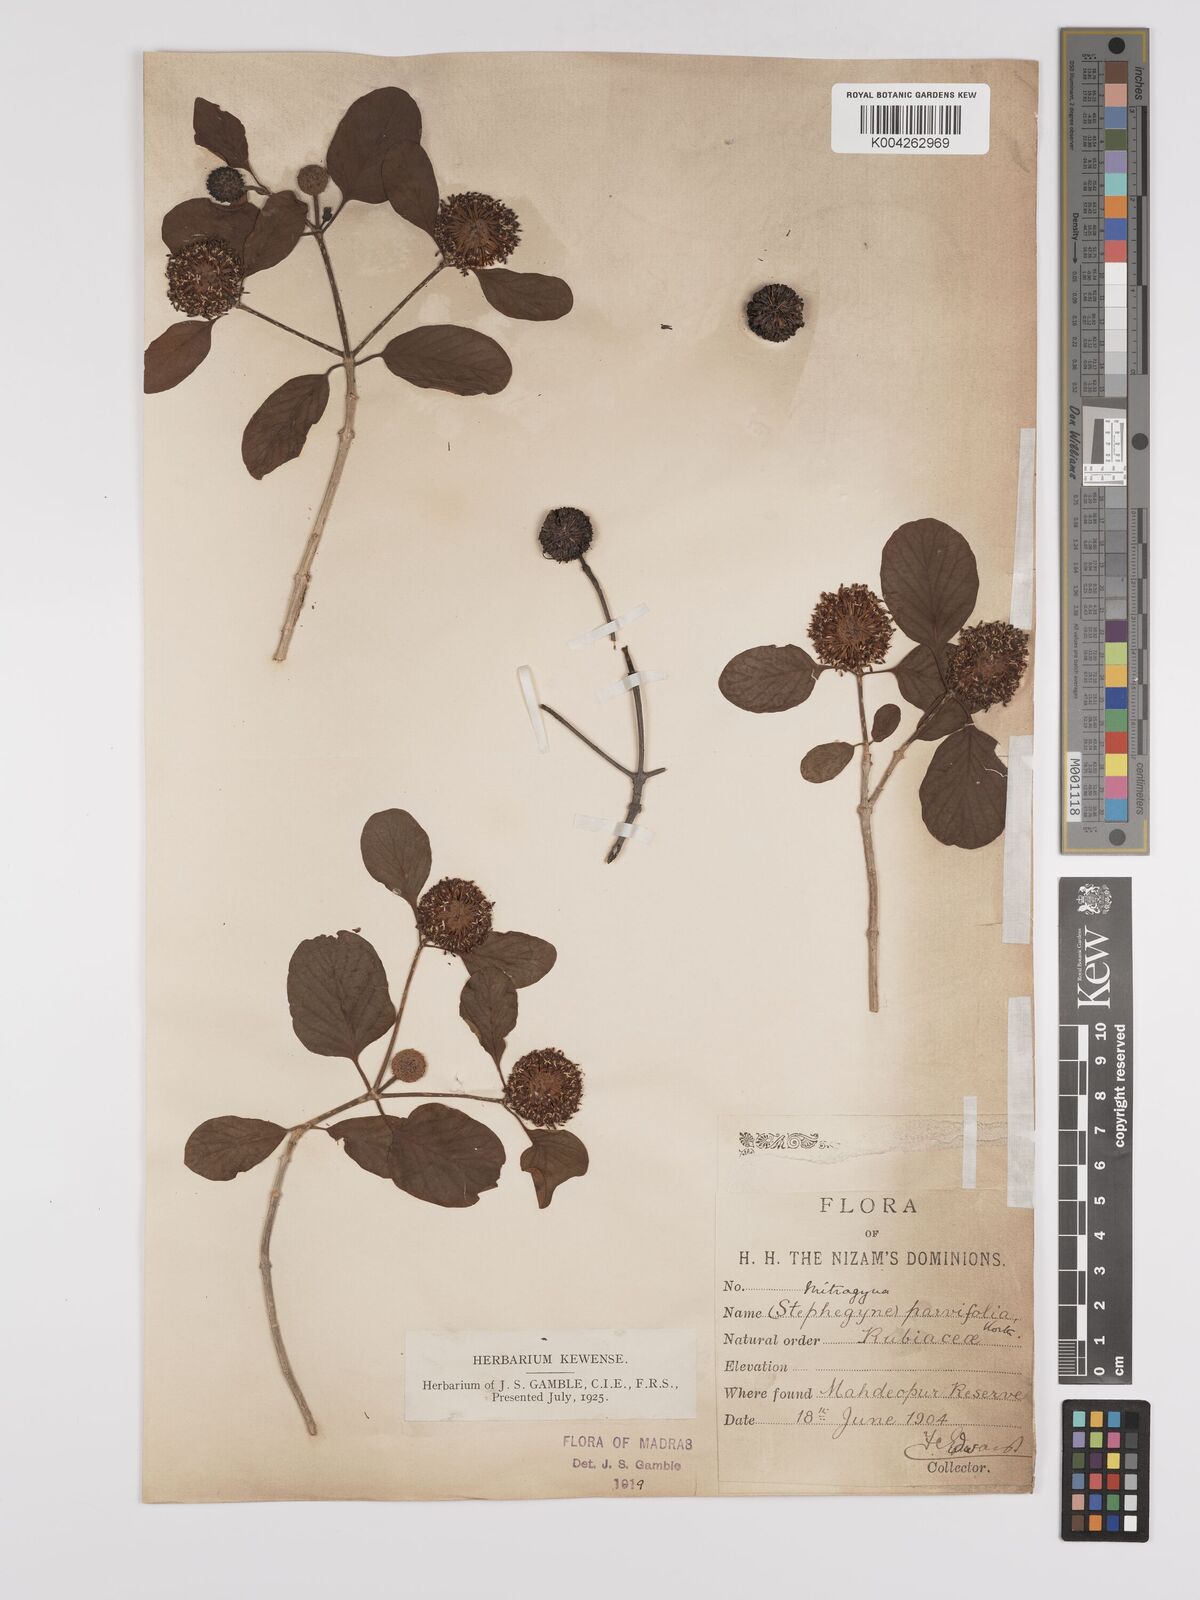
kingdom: Plantae
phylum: Tracheophyta
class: Magnoliopsida
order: Gentianales
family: Rubiaceae
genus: Mitragyna
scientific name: Mitragyna parvifolia
